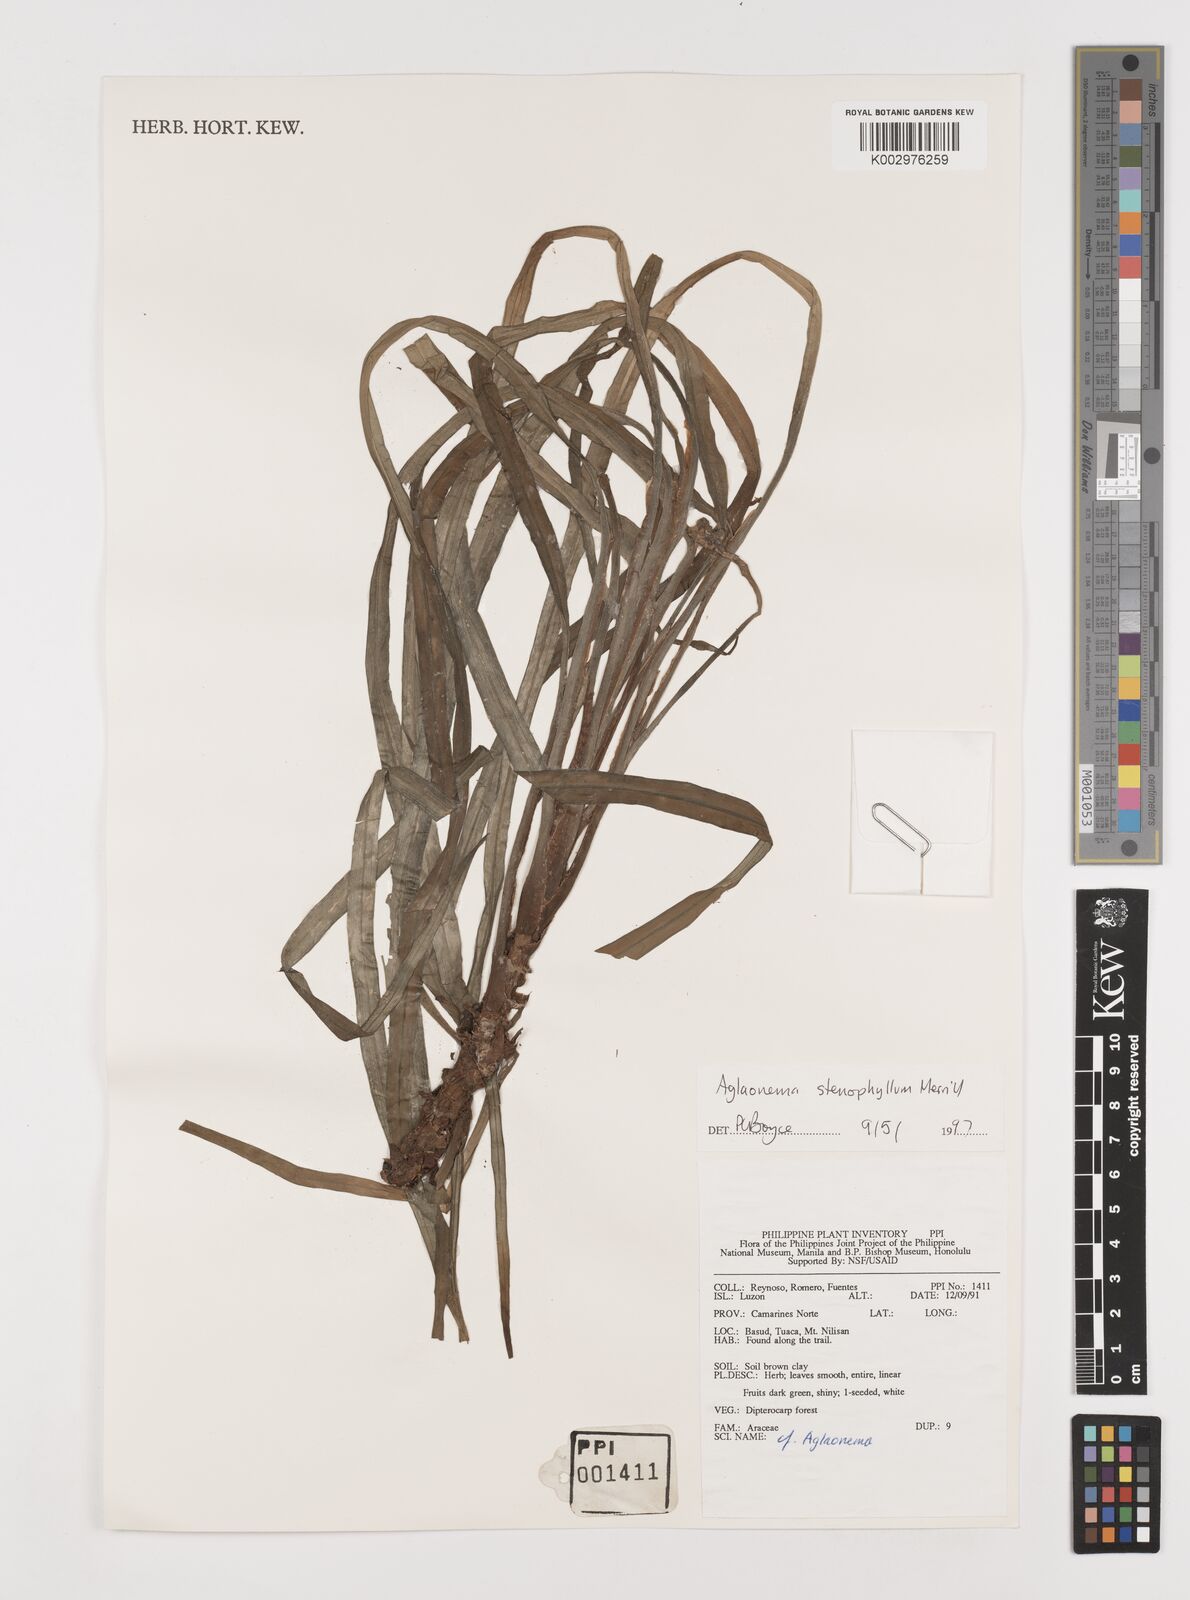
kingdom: Plantae
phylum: Tracheophyta
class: Liliopsida
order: Alismatales
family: Araceae
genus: Aglaonema
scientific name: Aglaonema philippinense
